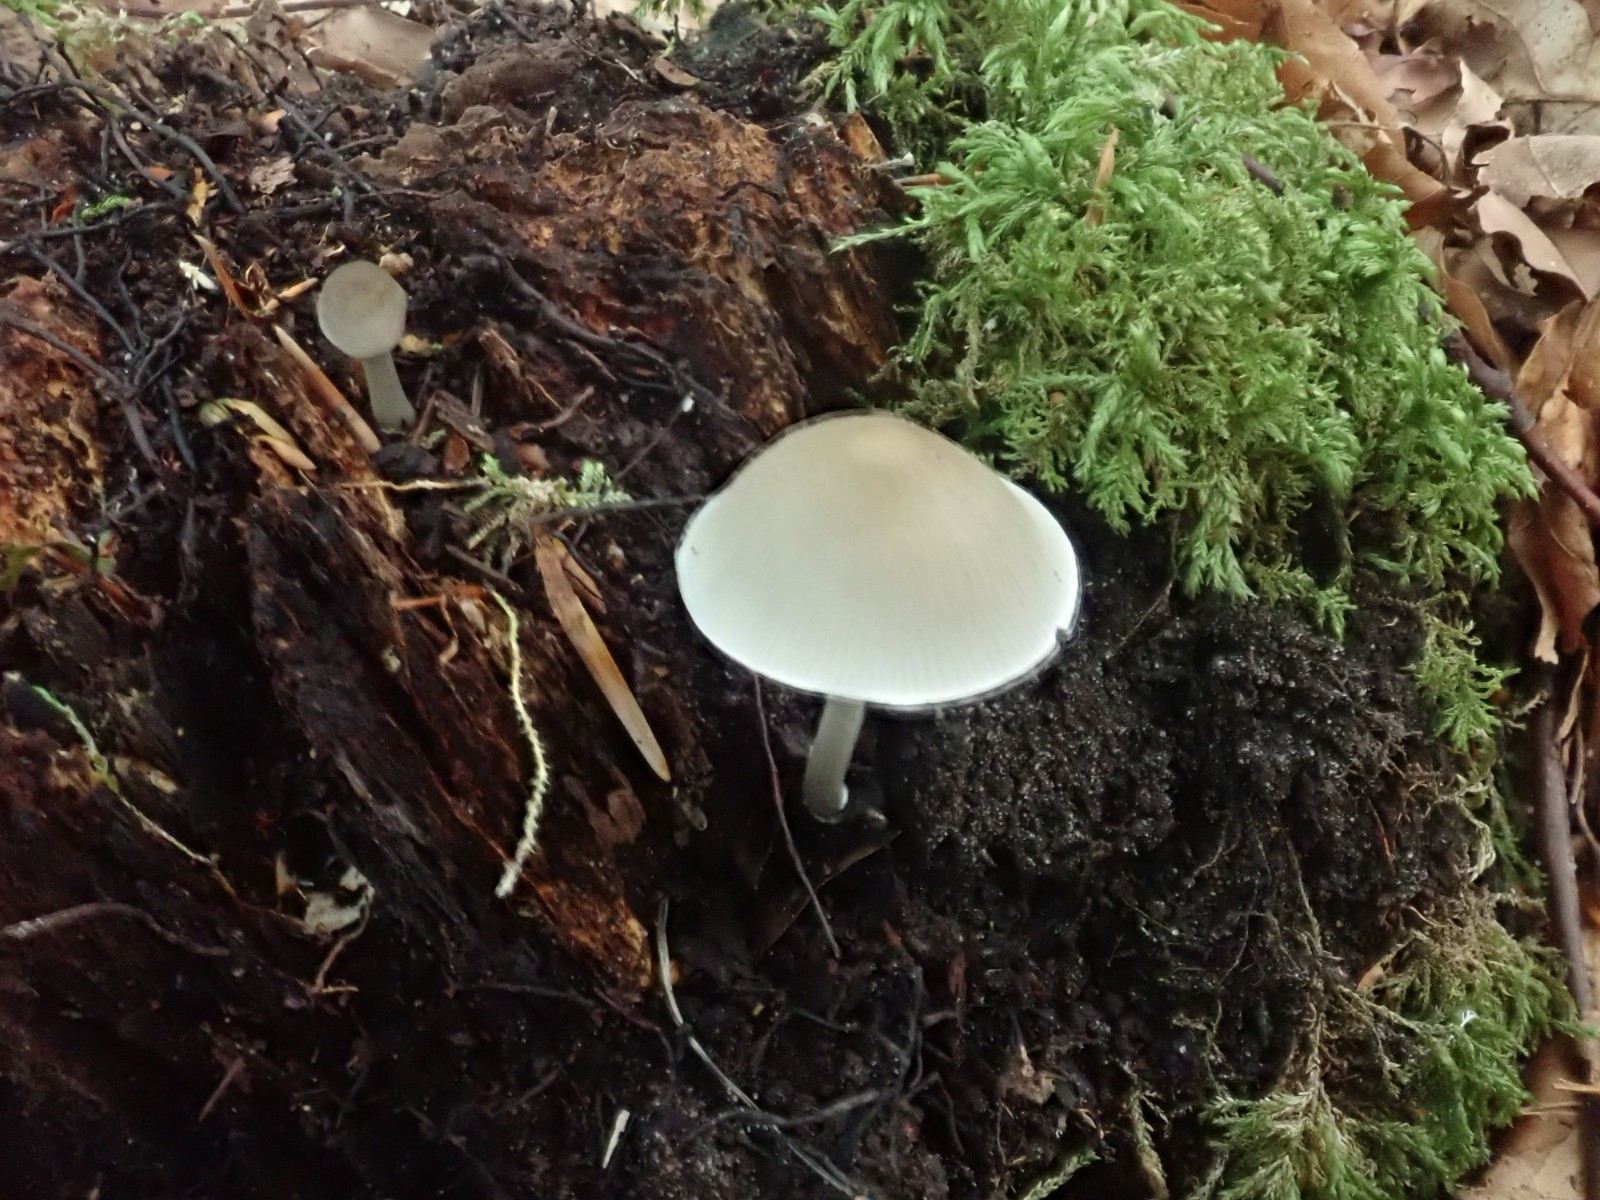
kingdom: Fungi
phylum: Basidiomycota
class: Agaricomycetes
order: Agaricales
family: Mycenaceae
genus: Mycena
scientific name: Mycena galericulata
